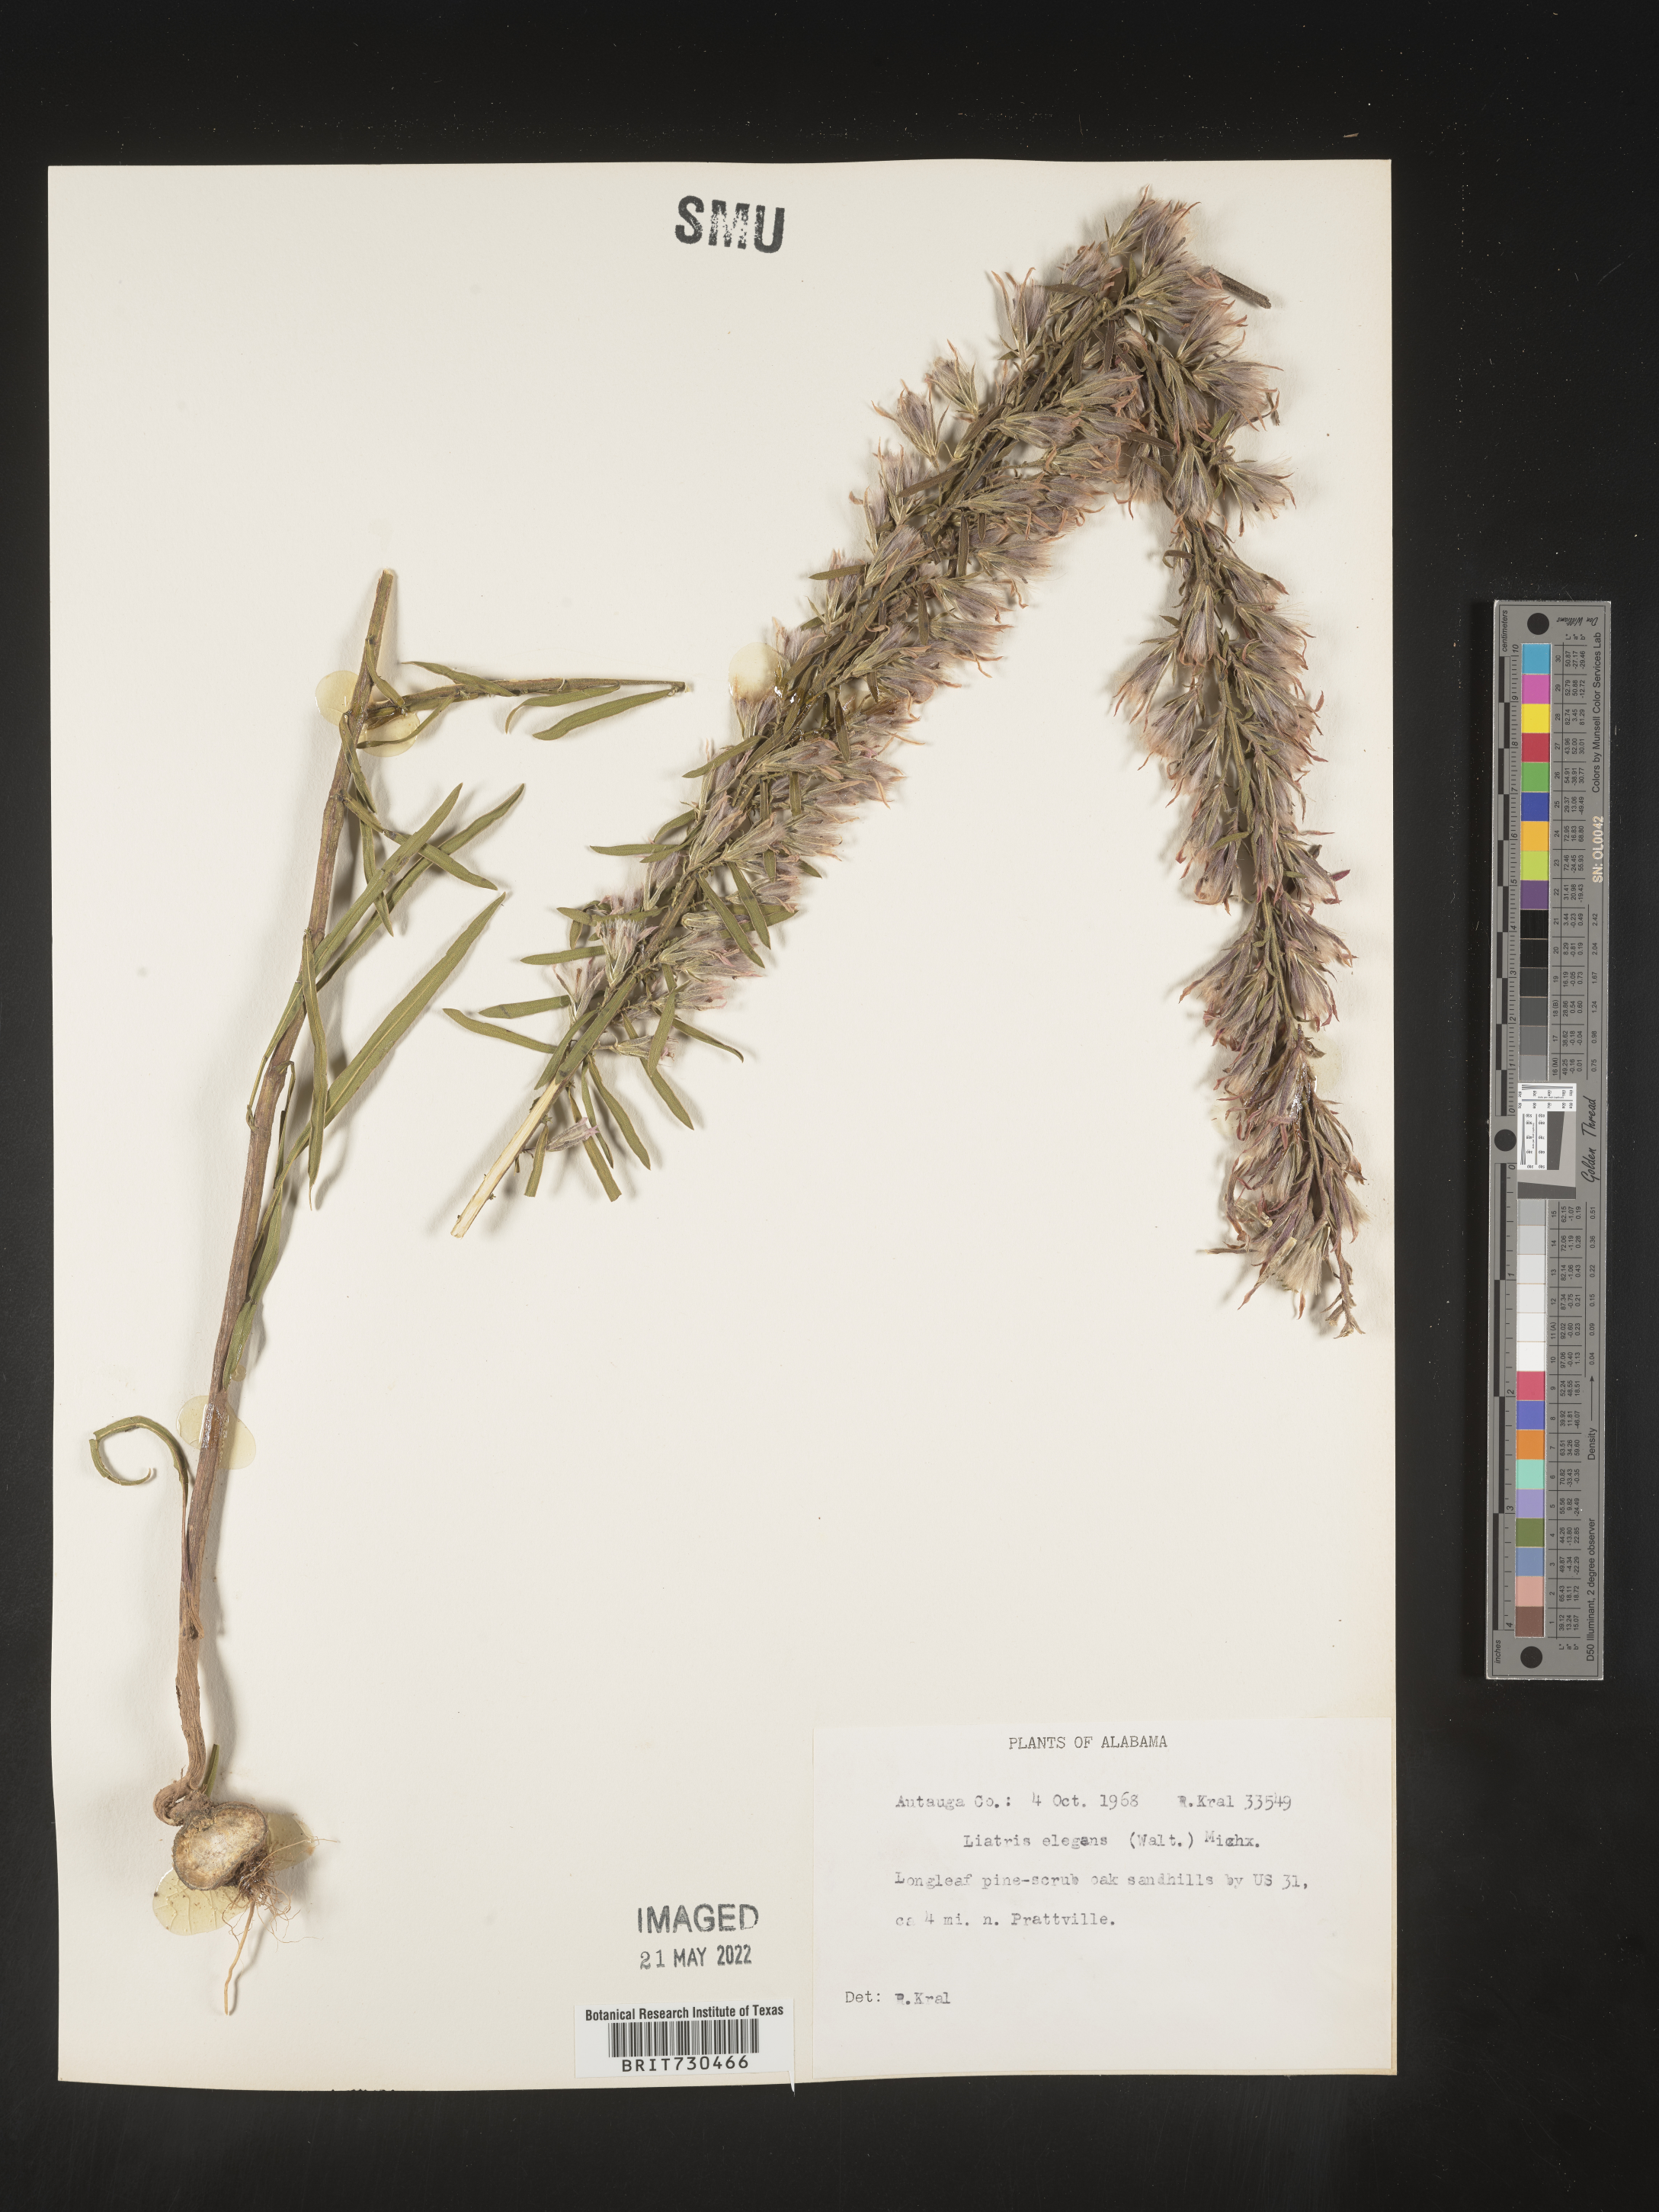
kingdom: Plantae
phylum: Tracheophyta
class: Magnoliopsida
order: Asterales
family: Asteraceae
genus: Liatris
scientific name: Liatris elegans
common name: Pinkscale gayfeather
